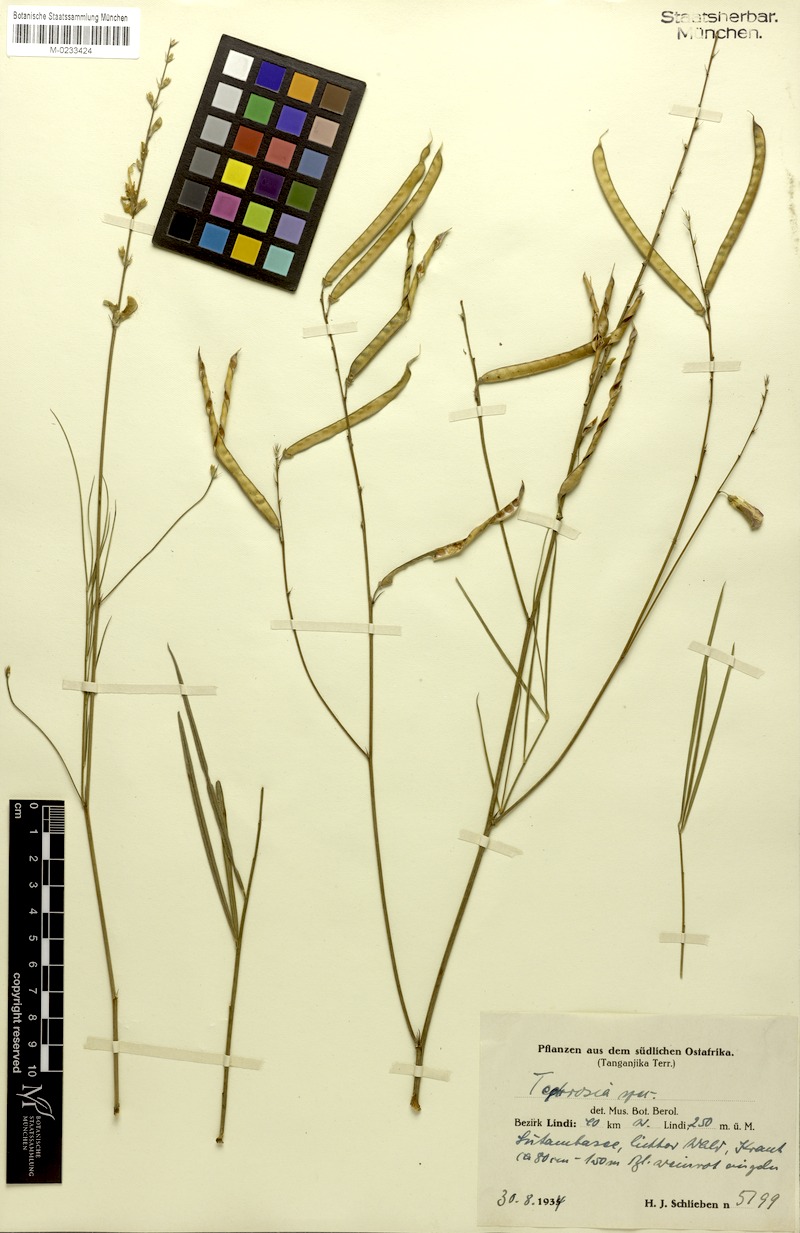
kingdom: Plantae
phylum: Tracheophyta
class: Magnoliopsida
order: Fabales
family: Fabaceae
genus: Tephrosia
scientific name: Tephrosia paradoxa
